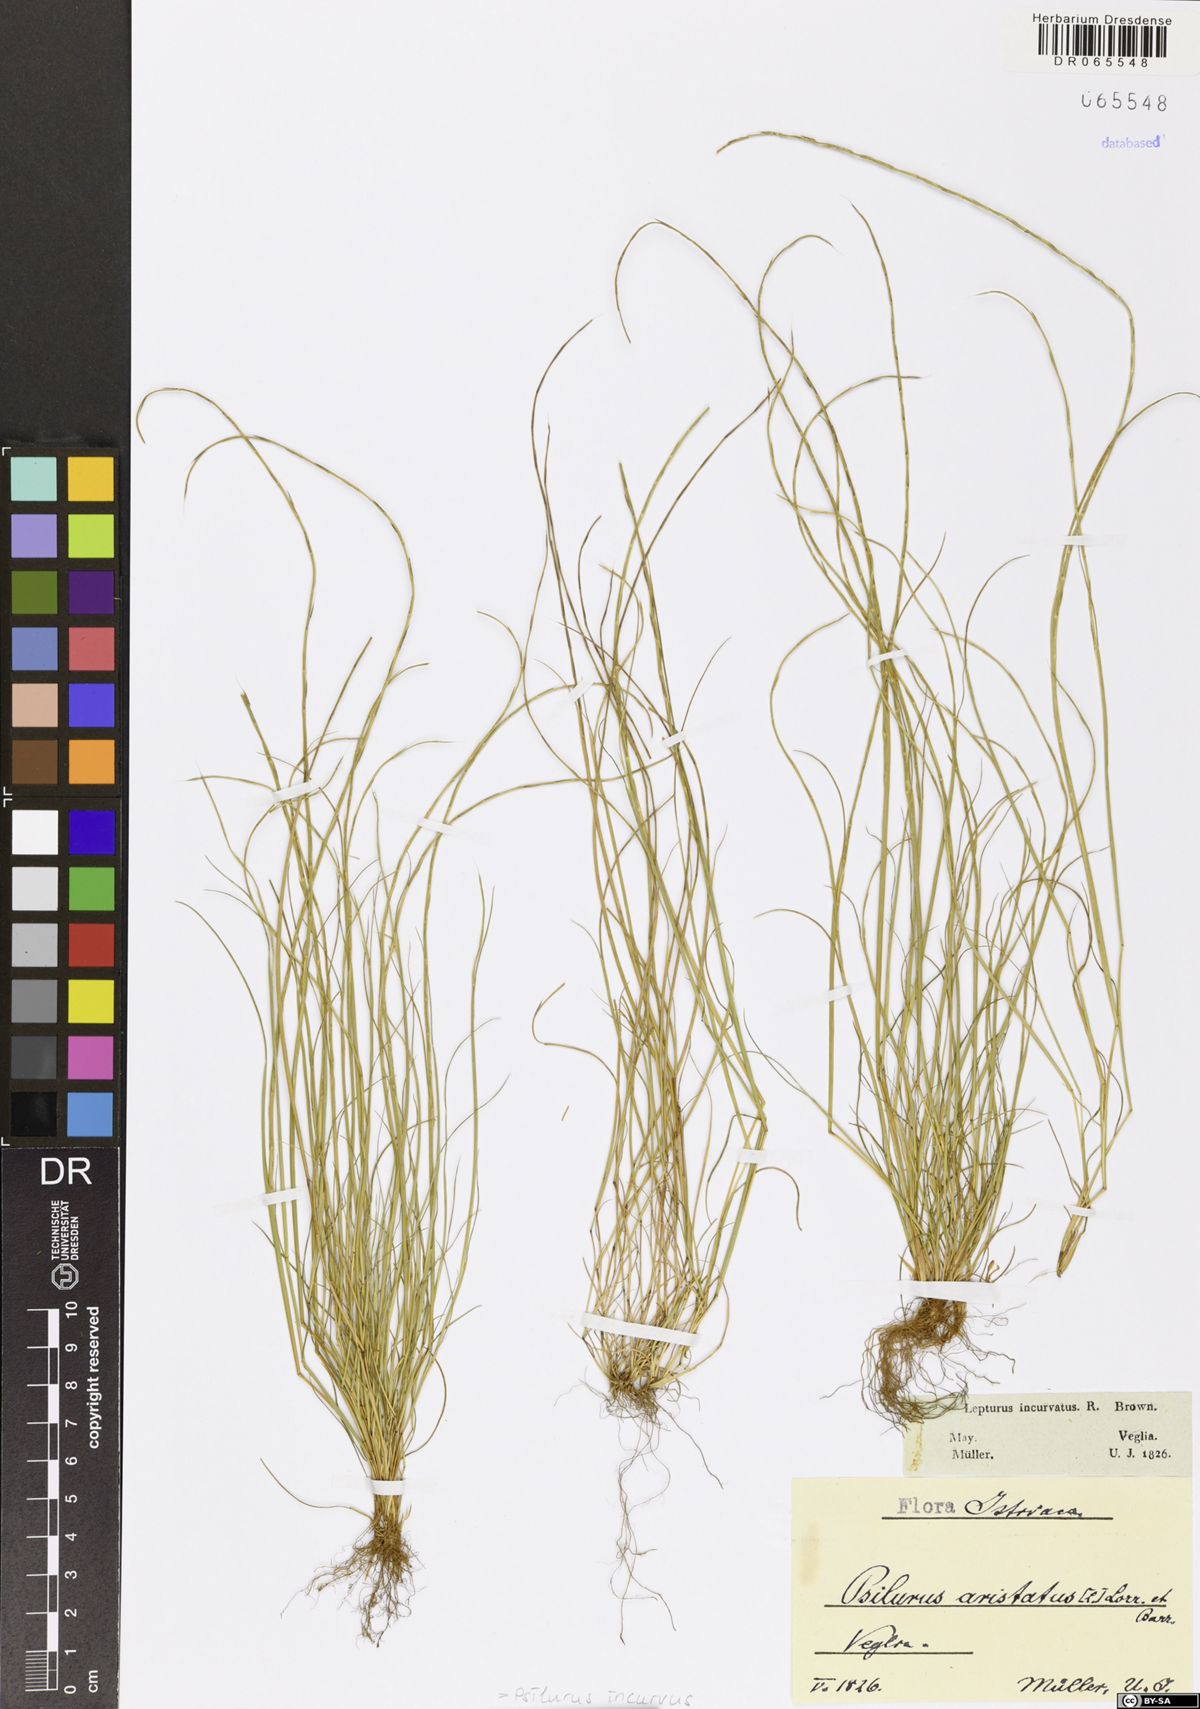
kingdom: Plantae
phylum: Tracheophyta
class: Liliopsida
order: Poales
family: Poaceae
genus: Festuca
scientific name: Festuca incurva
